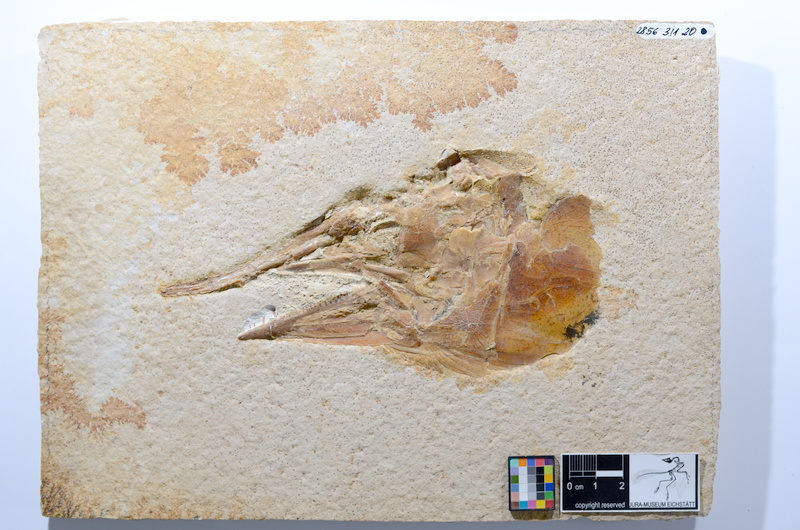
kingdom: Animalia
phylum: Chordata
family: Aspidorhynchidae
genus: Aspidorhynchus
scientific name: Aspidorhynchus acutirostris
